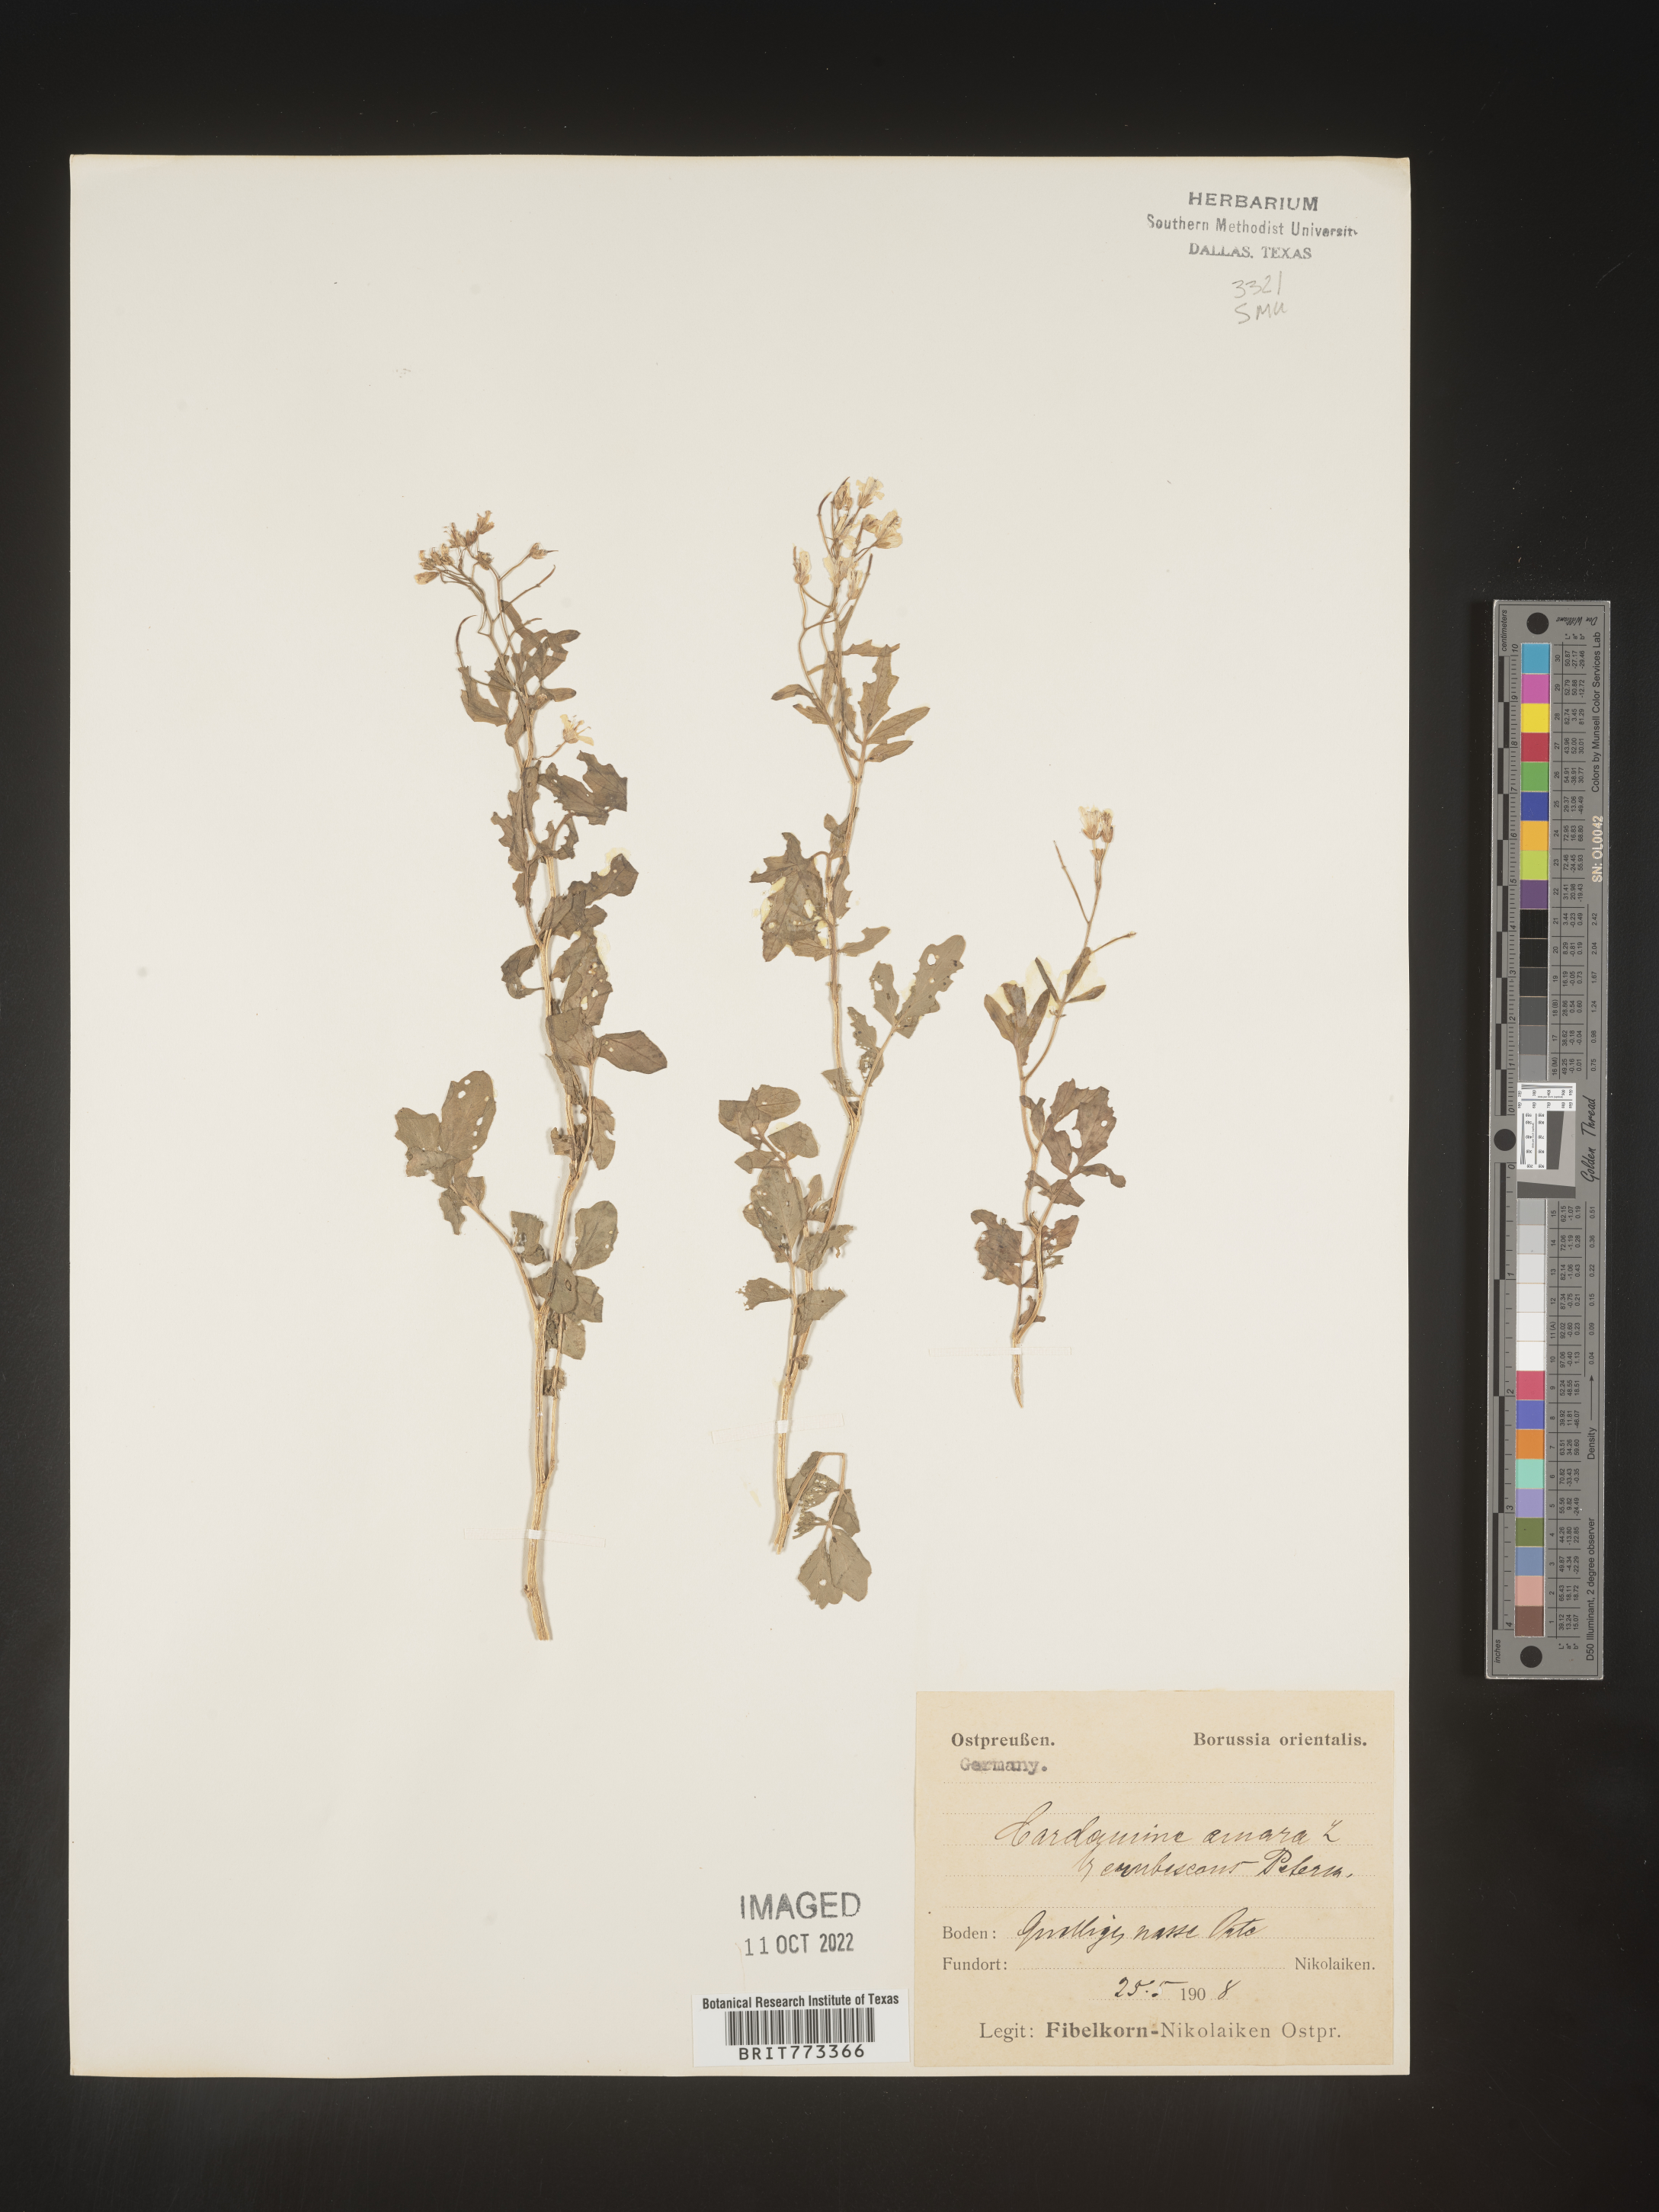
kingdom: Plantae
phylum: Tracheophyta
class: Magnoliopsida
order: Brassicales
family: Brassicaceae
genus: Cardamine
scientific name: Cardamine
